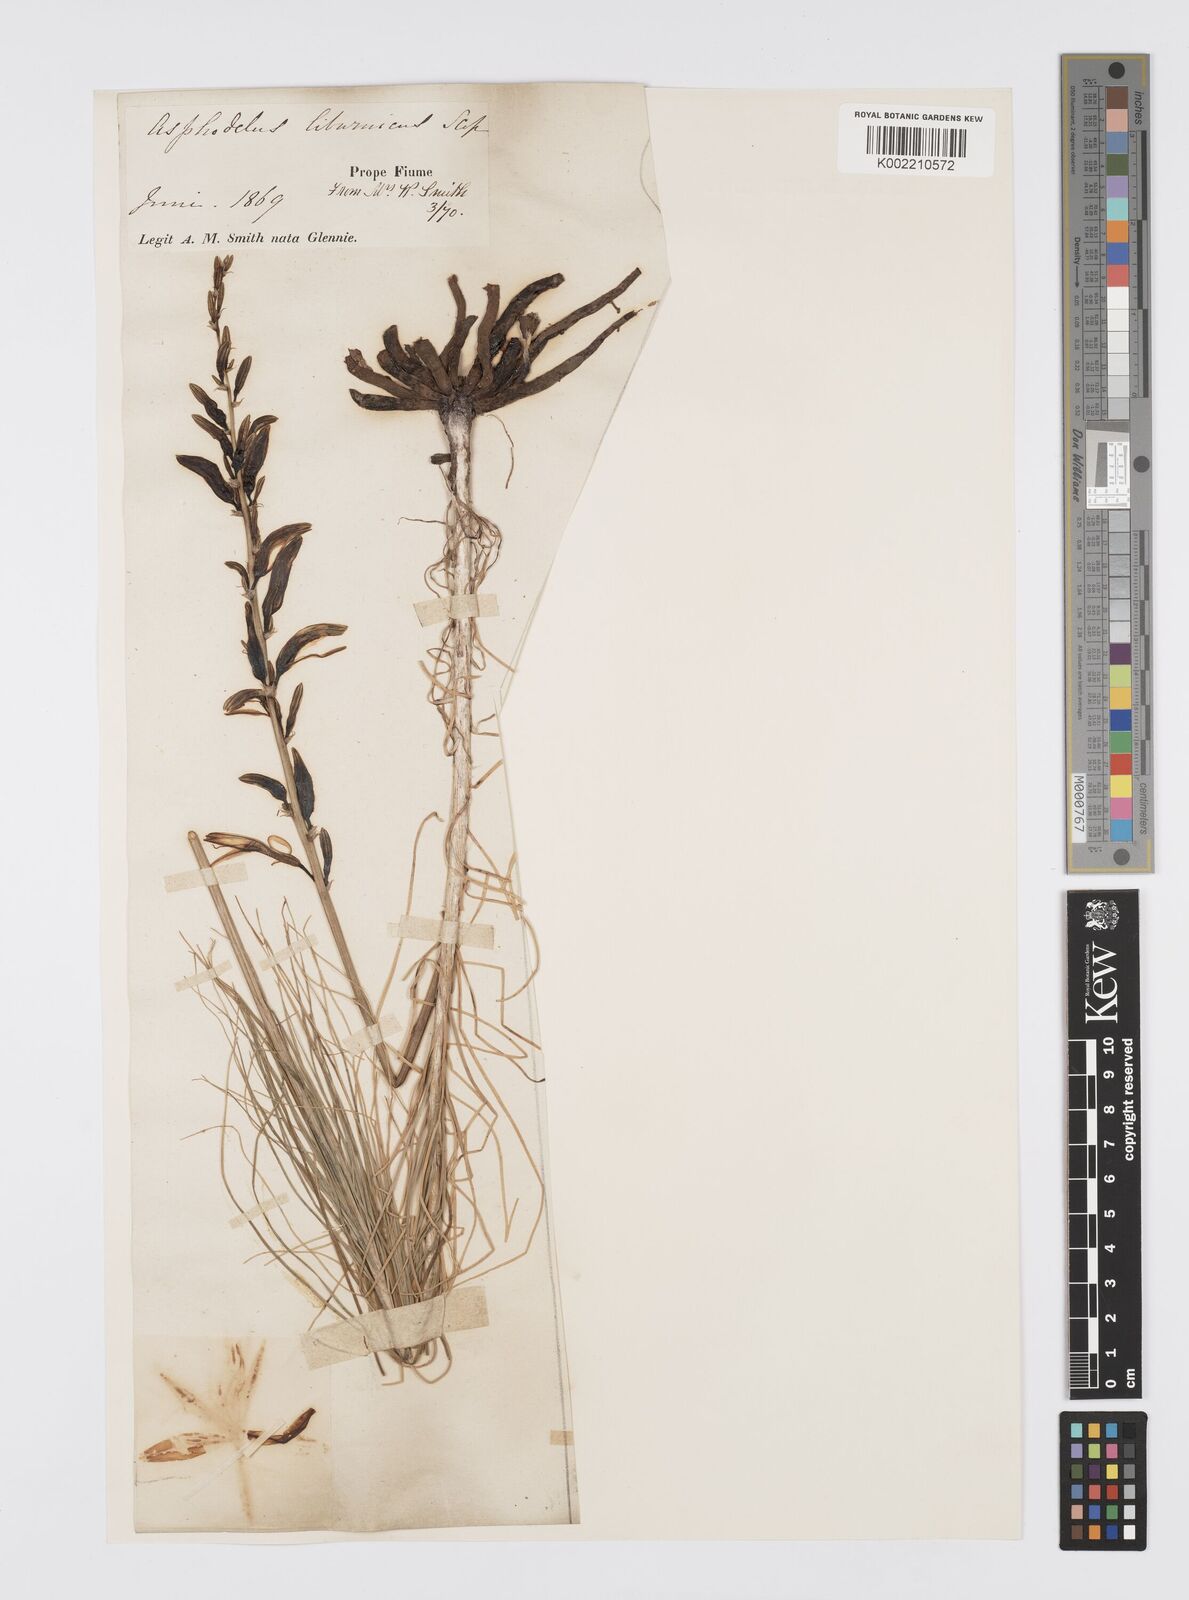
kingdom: Plantae
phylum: Tracheophyta
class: Liliopsida
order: Asparagales
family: Asphodelaceae
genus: Asphodeline
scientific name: Asphodeline liburnica
